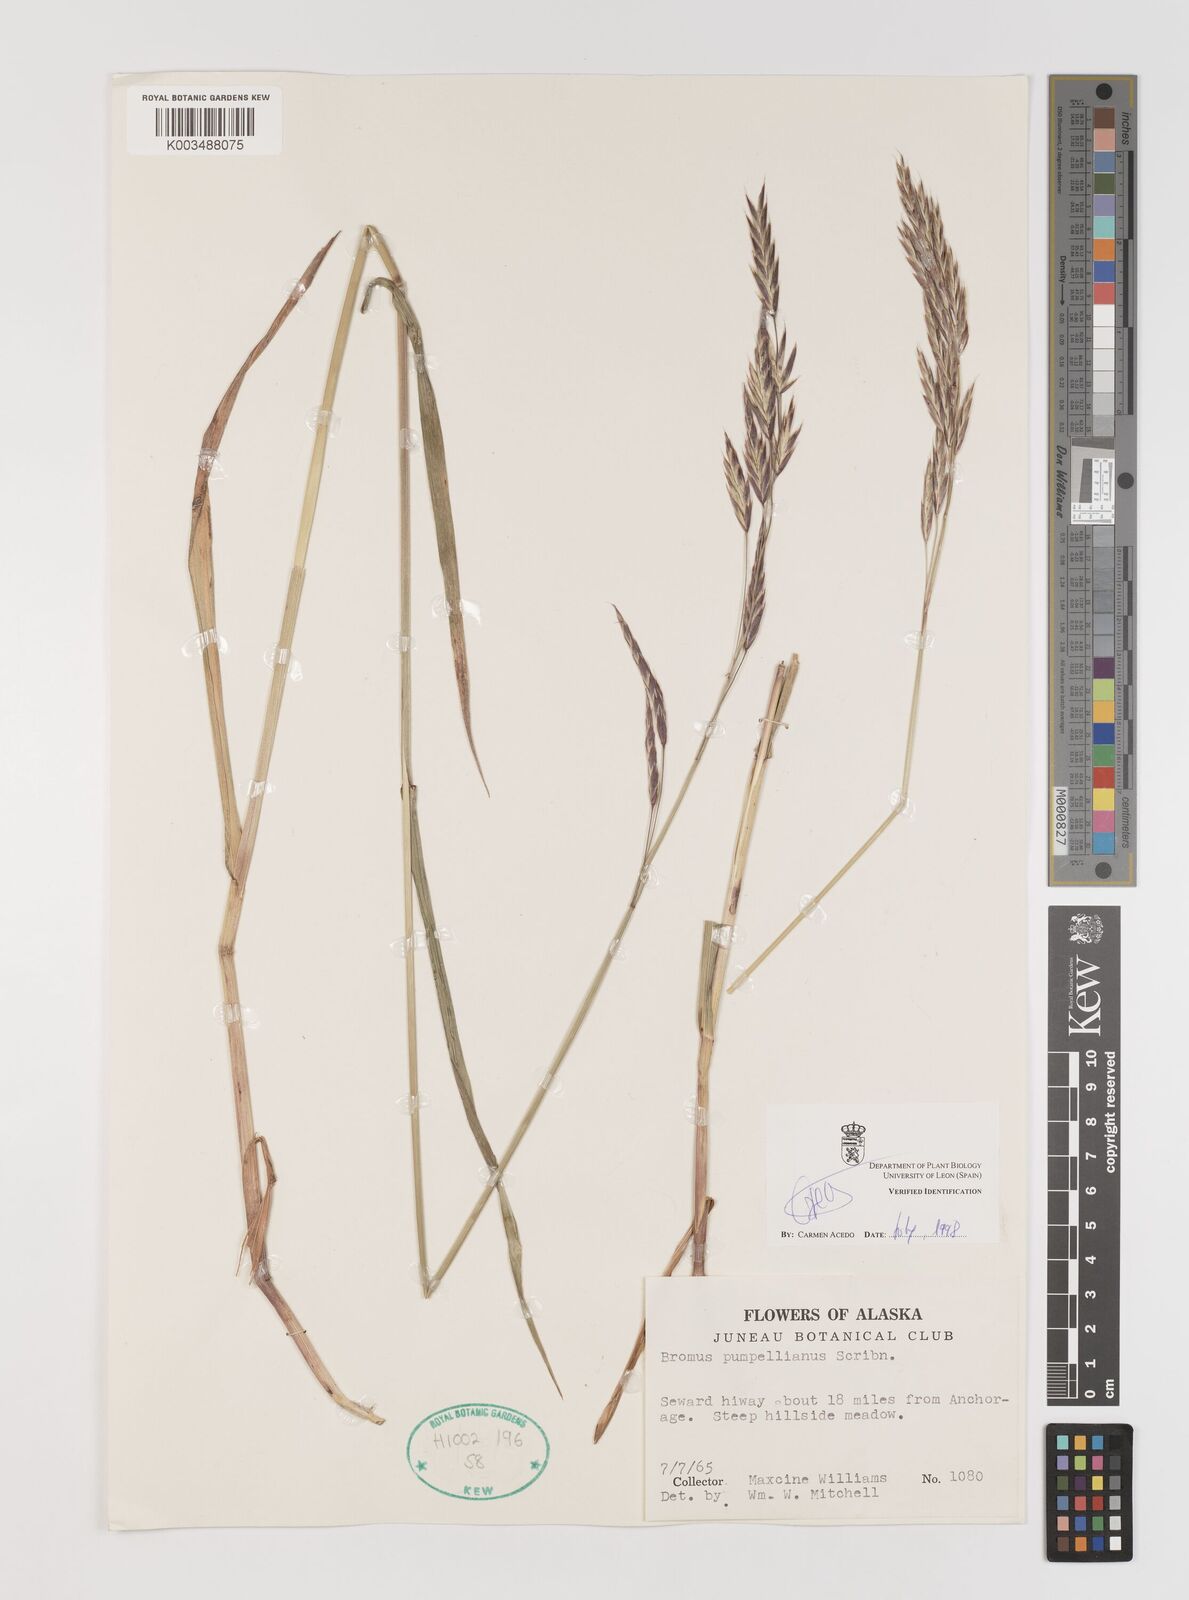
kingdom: Plantae
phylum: Tracheophyta
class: Liliopsida
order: Poales
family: Poaceae
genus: Bromus
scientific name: Bromus pumpellianus
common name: Pumpelly's brome
